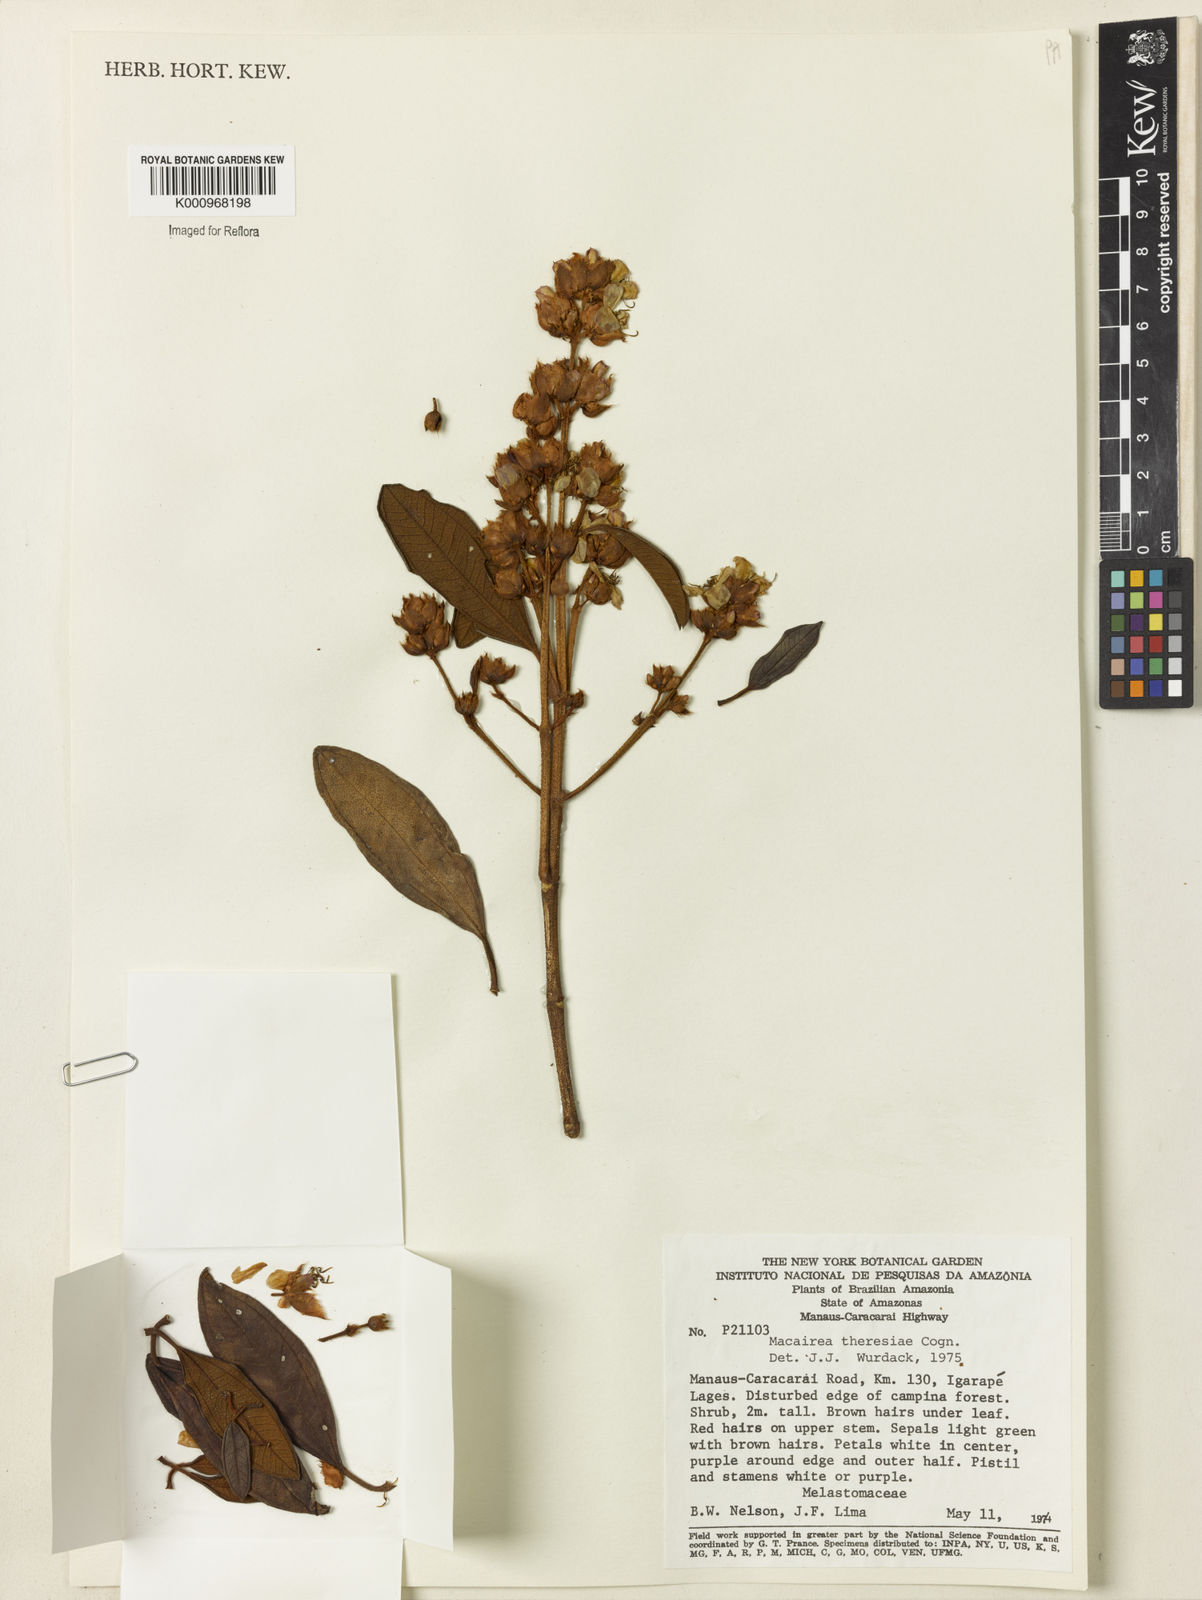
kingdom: Plantae
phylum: Tracheophyta
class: Magnoliopsida
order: Myrtales
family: Melastomataceae
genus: Macairea
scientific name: Macairea theresiae
